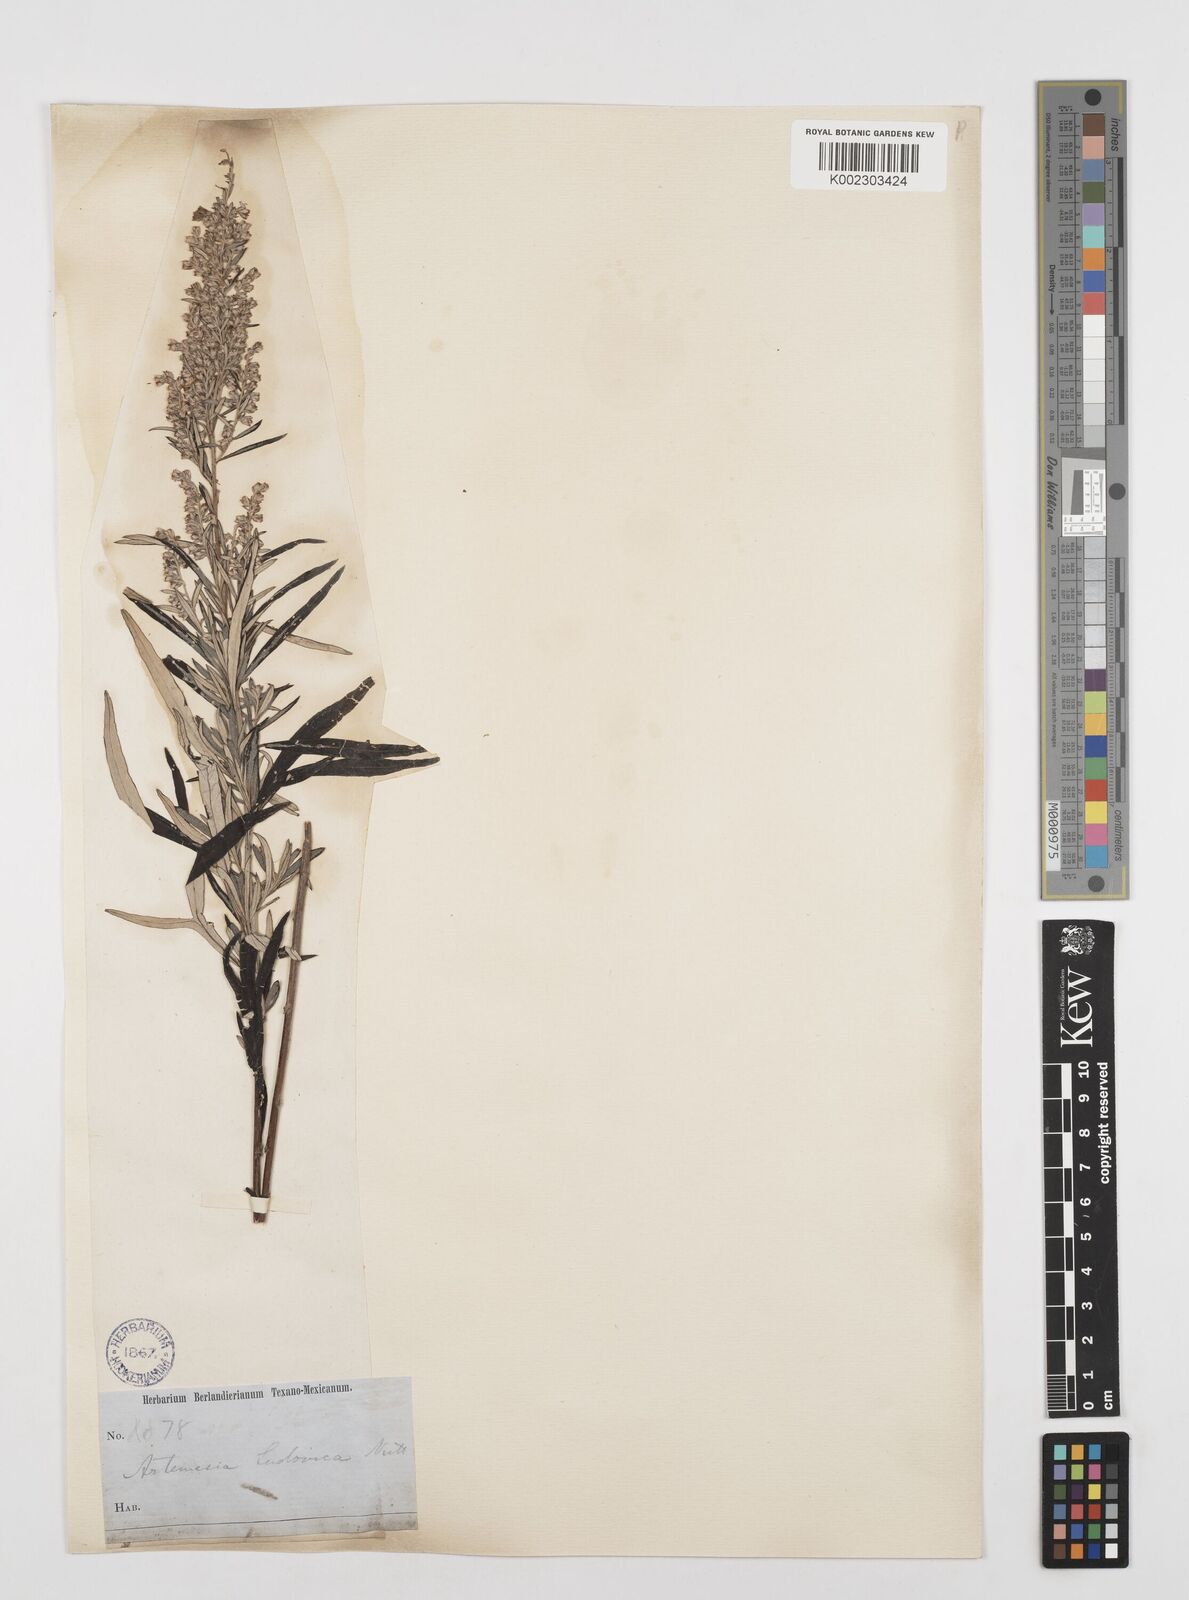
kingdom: Plantae
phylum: Tracheophyta
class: Magnoliopsida
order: Asterales
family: Asteraceae
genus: Artemisia
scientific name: Artemisia ludoviciana
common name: Western mugwort
